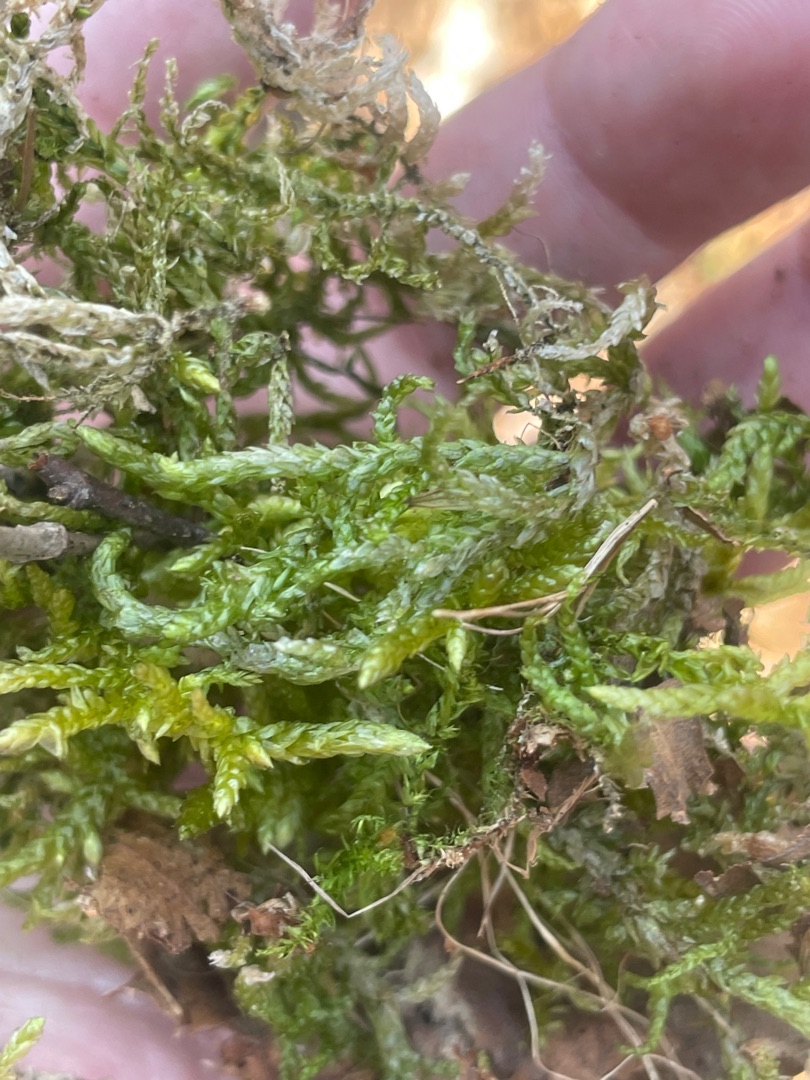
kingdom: Plantae
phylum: Bryophyta
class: Bryopsida
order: Hypnales
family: Brachytheciaceae
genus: Pseudoscleropodium
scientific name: Pseudoscleropodium purum
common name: Hulbladet fedtmos
